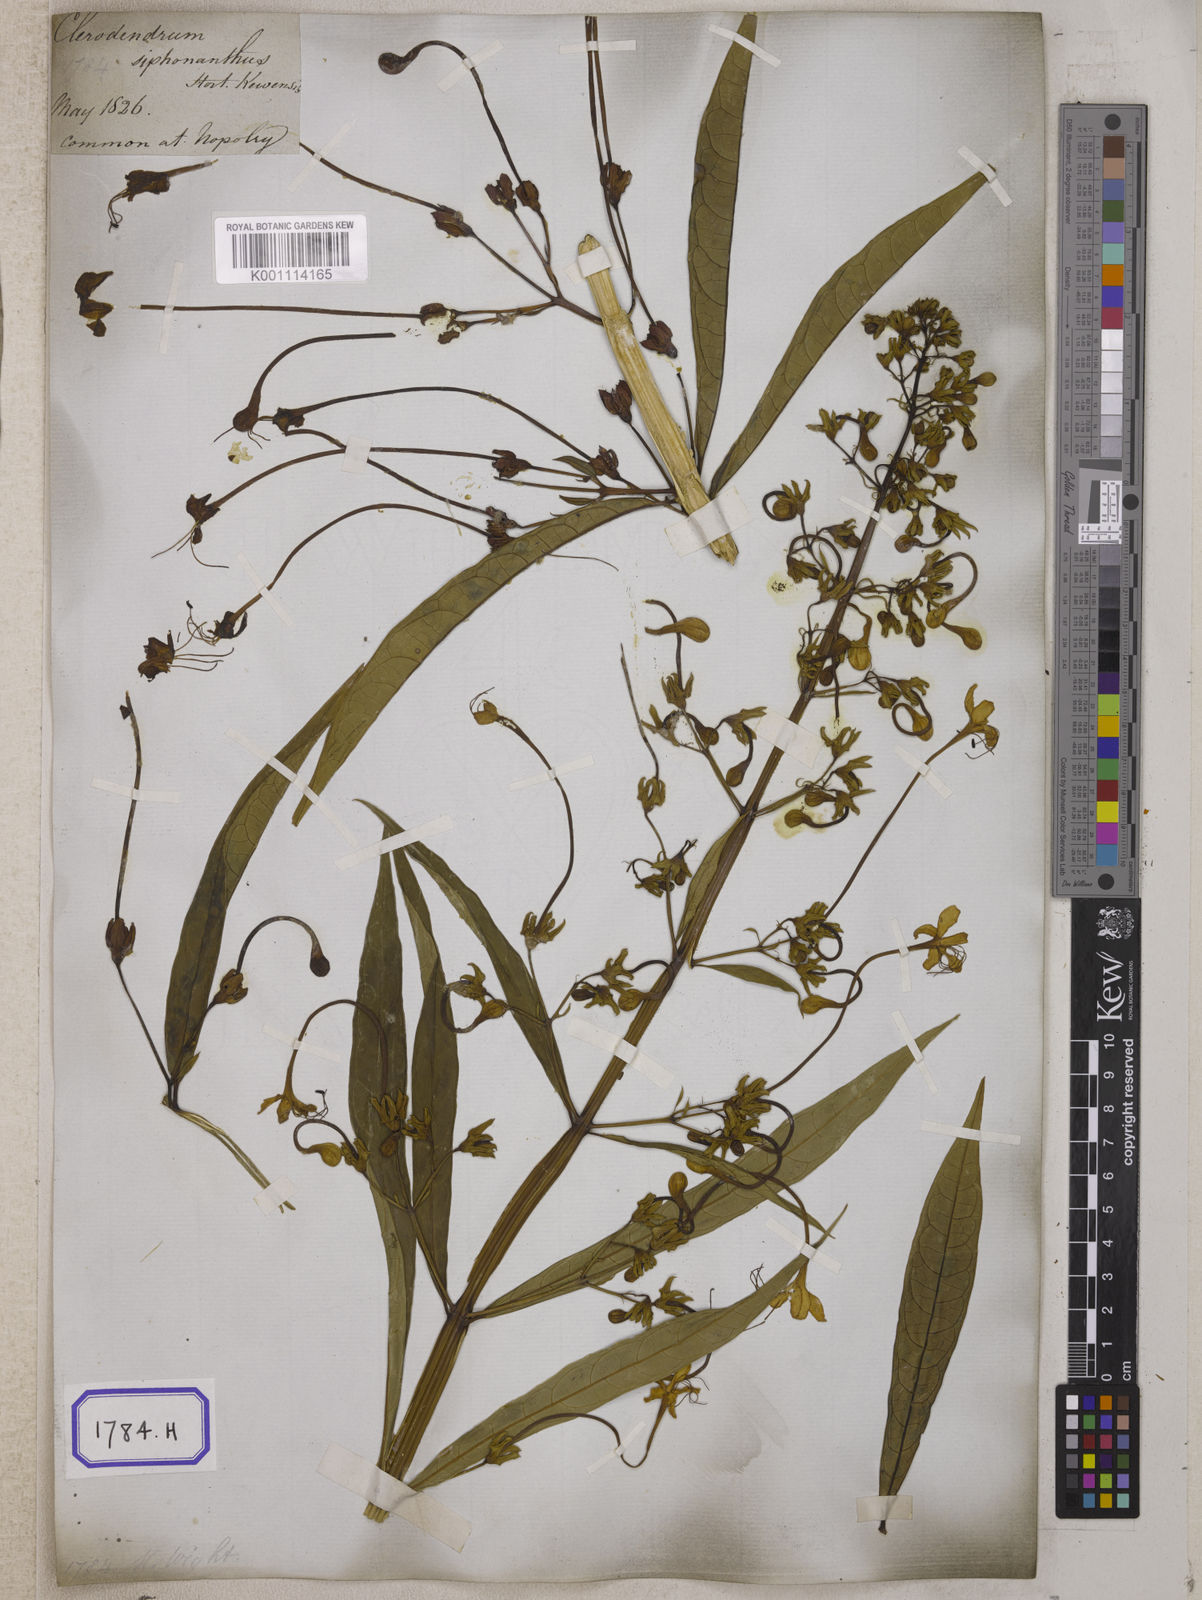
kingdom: Plantae
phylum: Tracheophyta
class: Magnoliopsida
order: Lamiales
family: Lamiaceae
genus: Clerodendrum
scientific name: Clerodendrum indicum
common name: Turk's turbin
